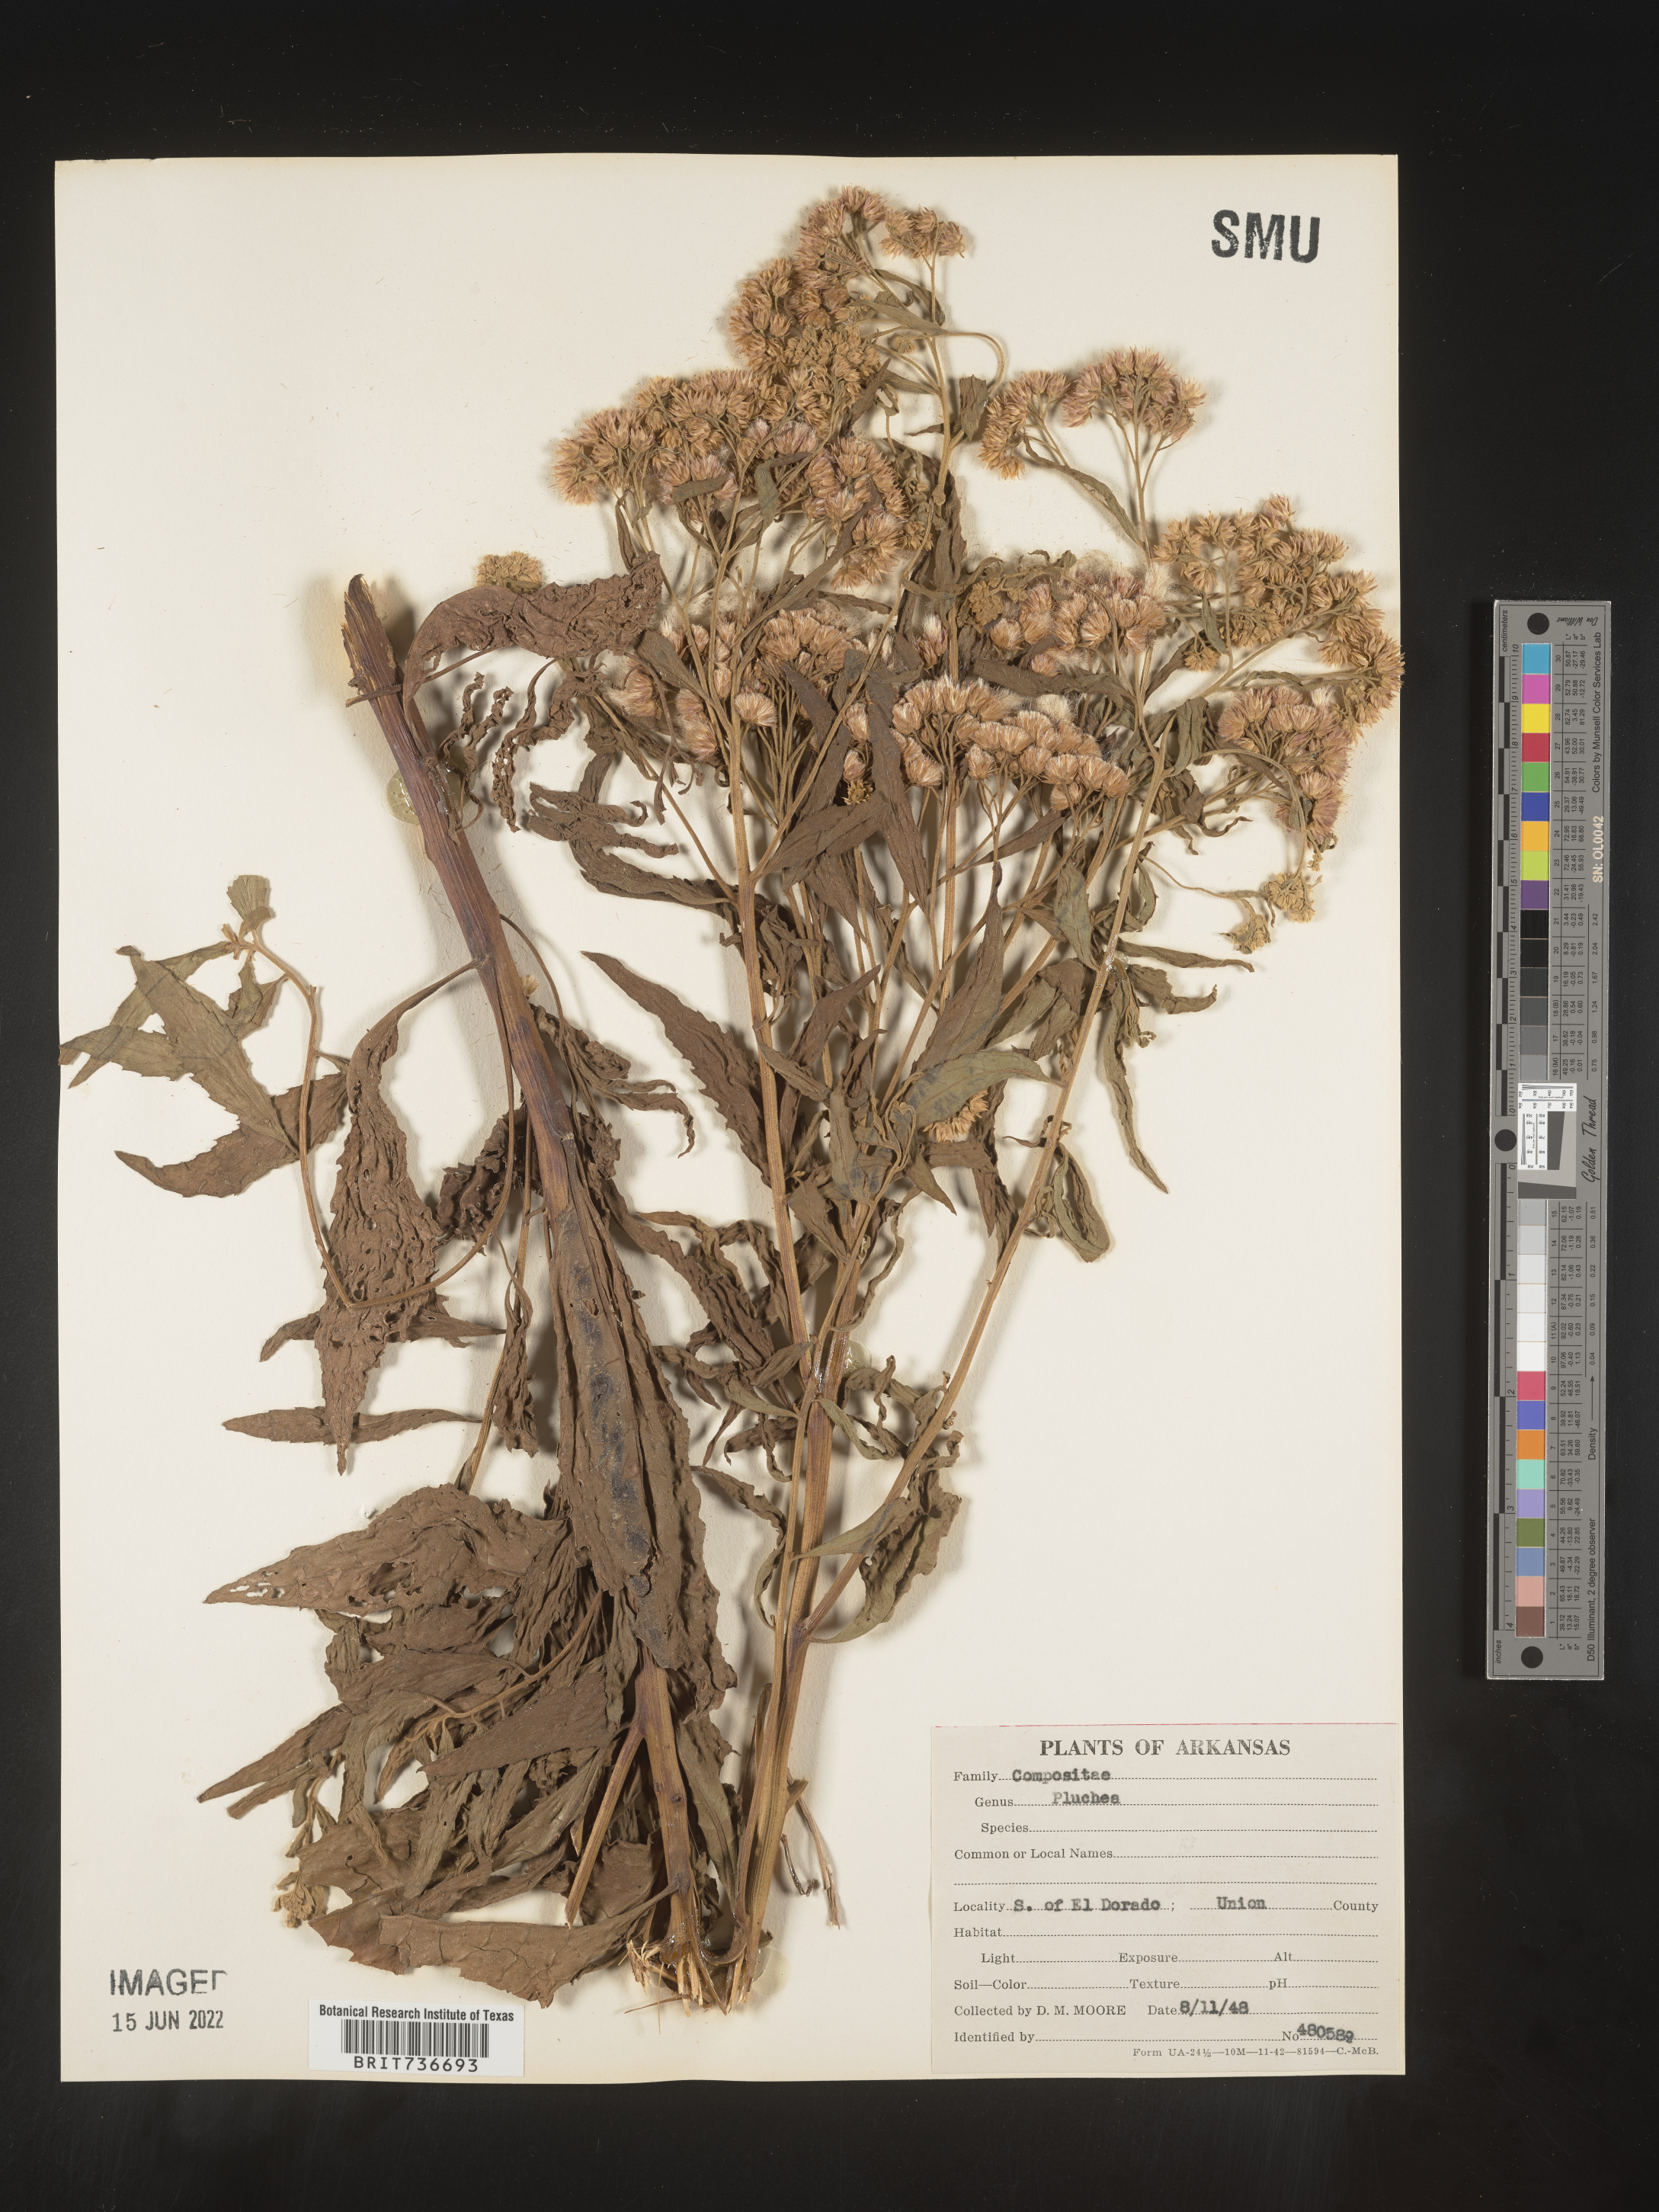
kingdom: Plantae
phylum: Tracheophyta
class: Magnoliopsida
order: Asterales
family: Asteraceae
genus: Pluchea
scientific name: Pluchea odorata
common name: Saltmarsh fleabane
